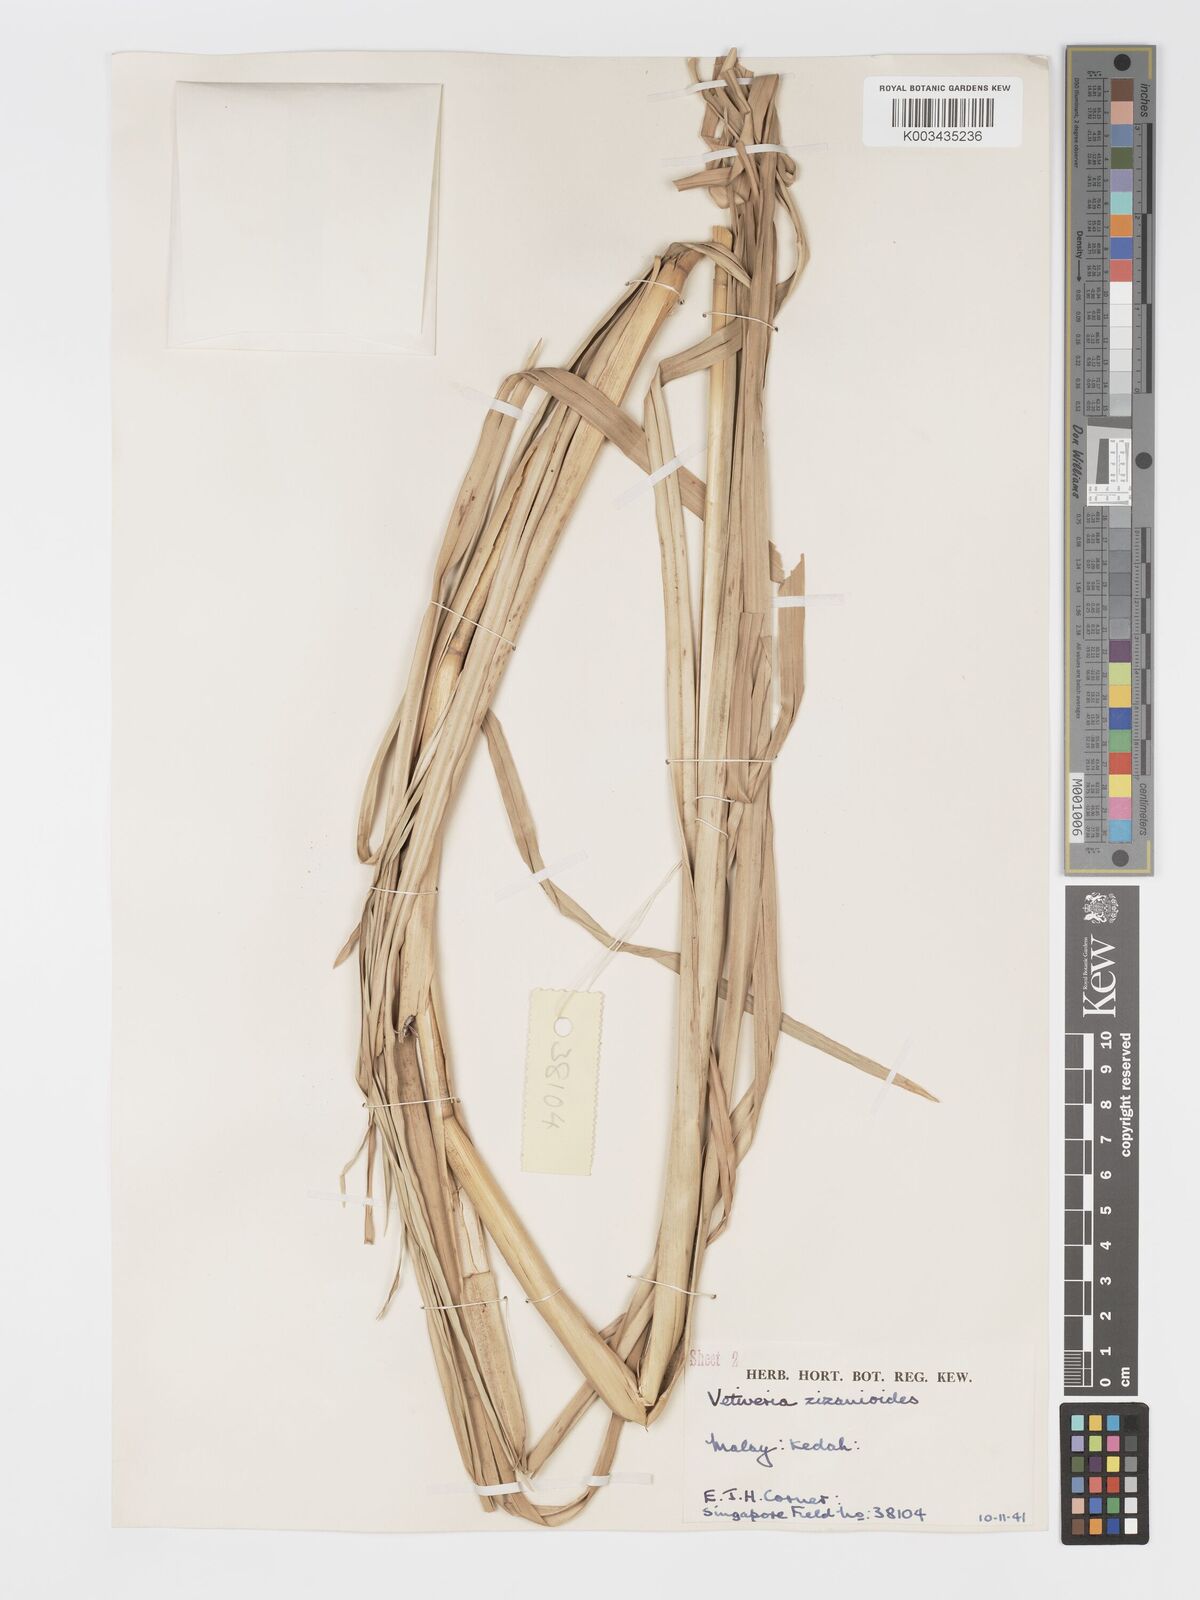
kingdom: Plantae
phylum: Tracheophyta
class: Liliopsida
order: Poales
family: Poaceae
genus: Chrysopogon
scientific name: Chrysopogon zizanioides
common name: False beardgrass
